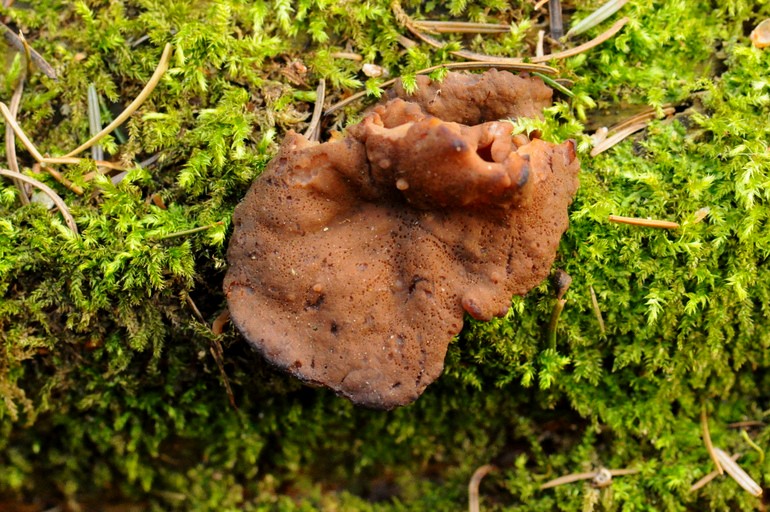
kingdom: Fungi
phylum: Ascomycota
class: Pezizomycetes
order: Pezizales
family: Discinaceae
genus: Discina
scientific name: Discina ancilis
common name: udbredt stenmorkel
